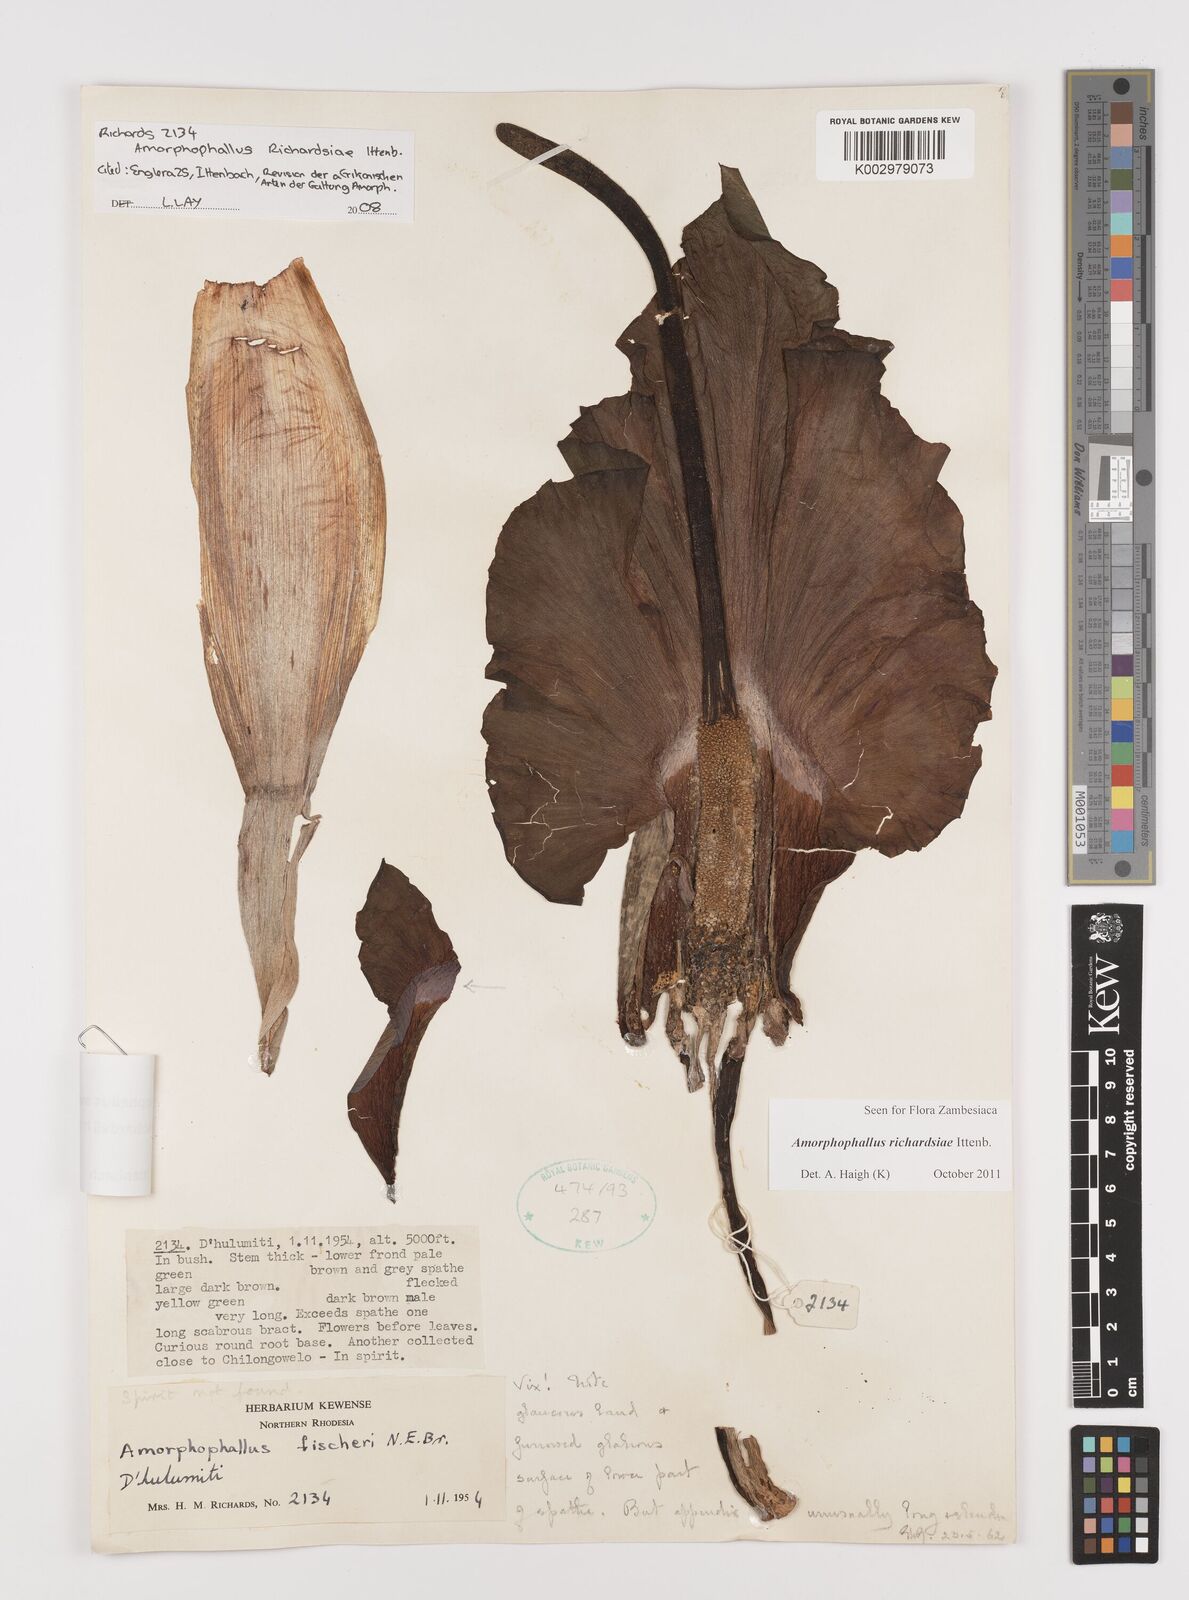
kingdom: Plantae
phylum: Tracheophyta
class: Liliopsida
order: Alismatales
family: Araceae
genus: Amorphophallus
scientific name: Amorphophallus richardsiae
